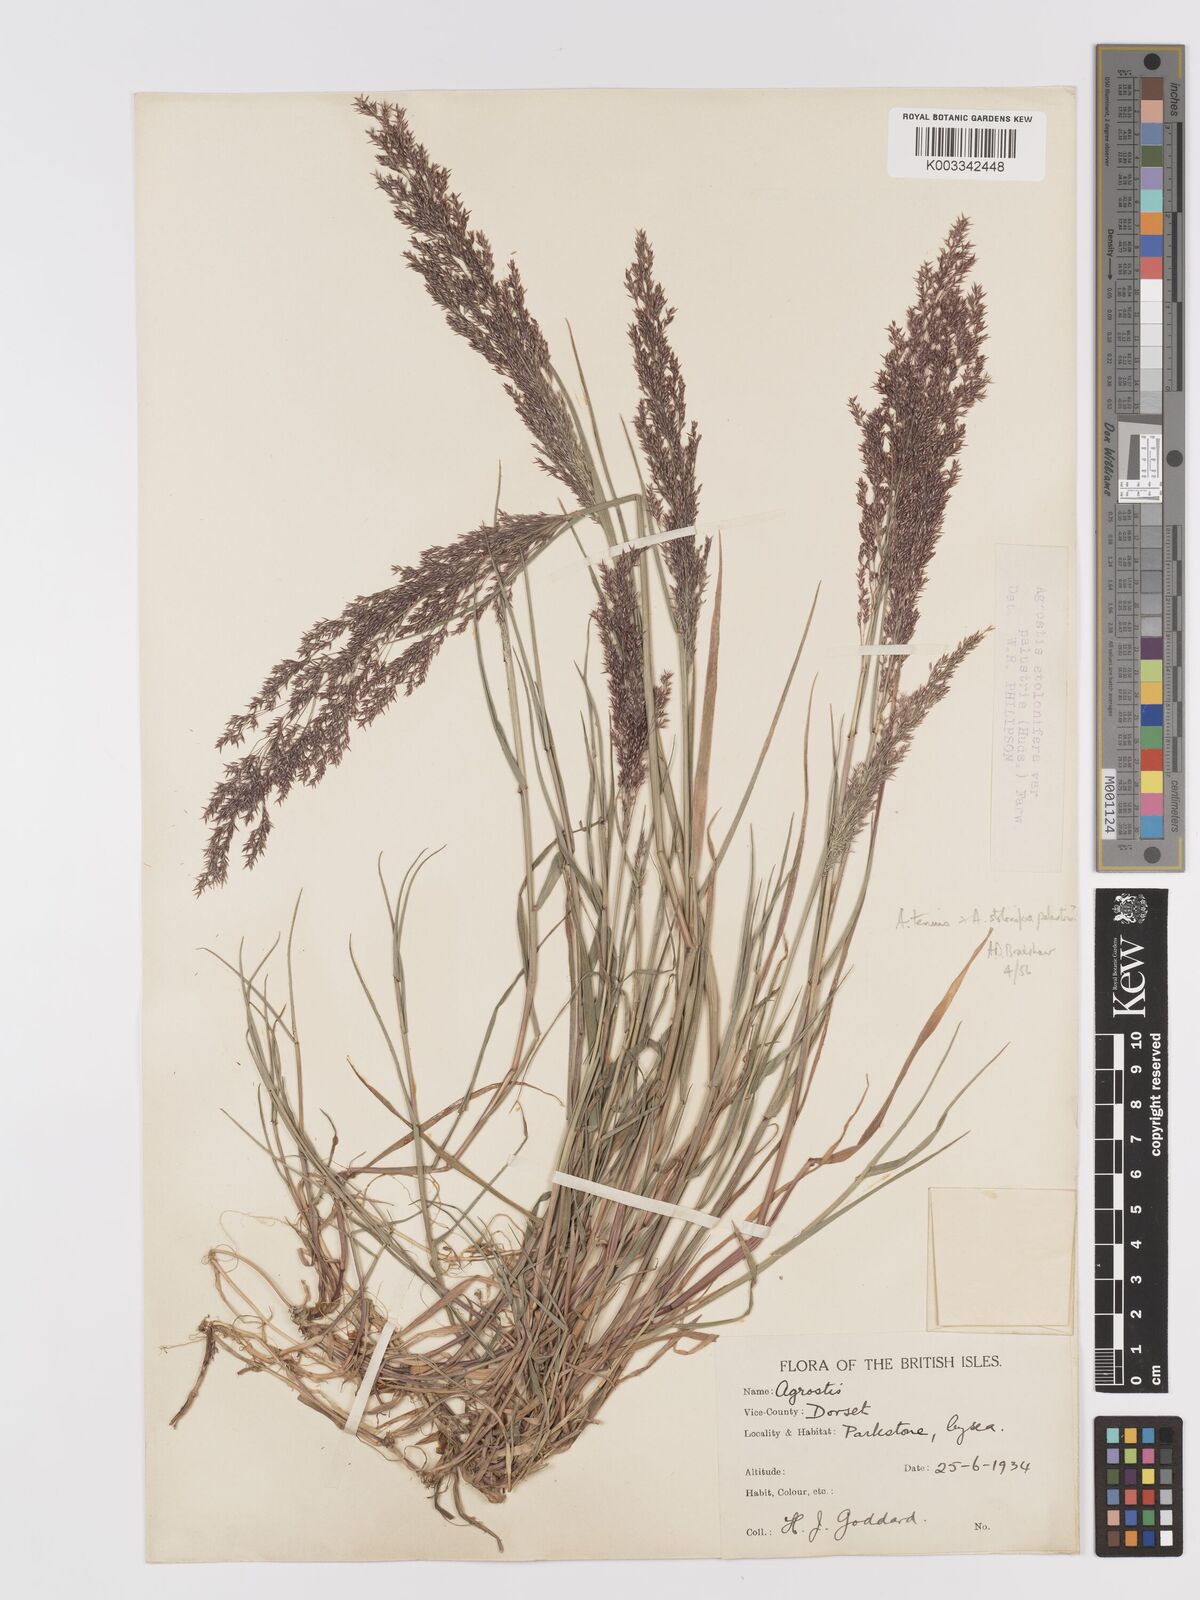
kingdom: Plantae
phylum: Tracheophyta
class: Liliopsida
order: Poales
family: Poaceae
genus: Agrostis
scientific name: Agrostis capillaris
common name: Colonial bentgrass
